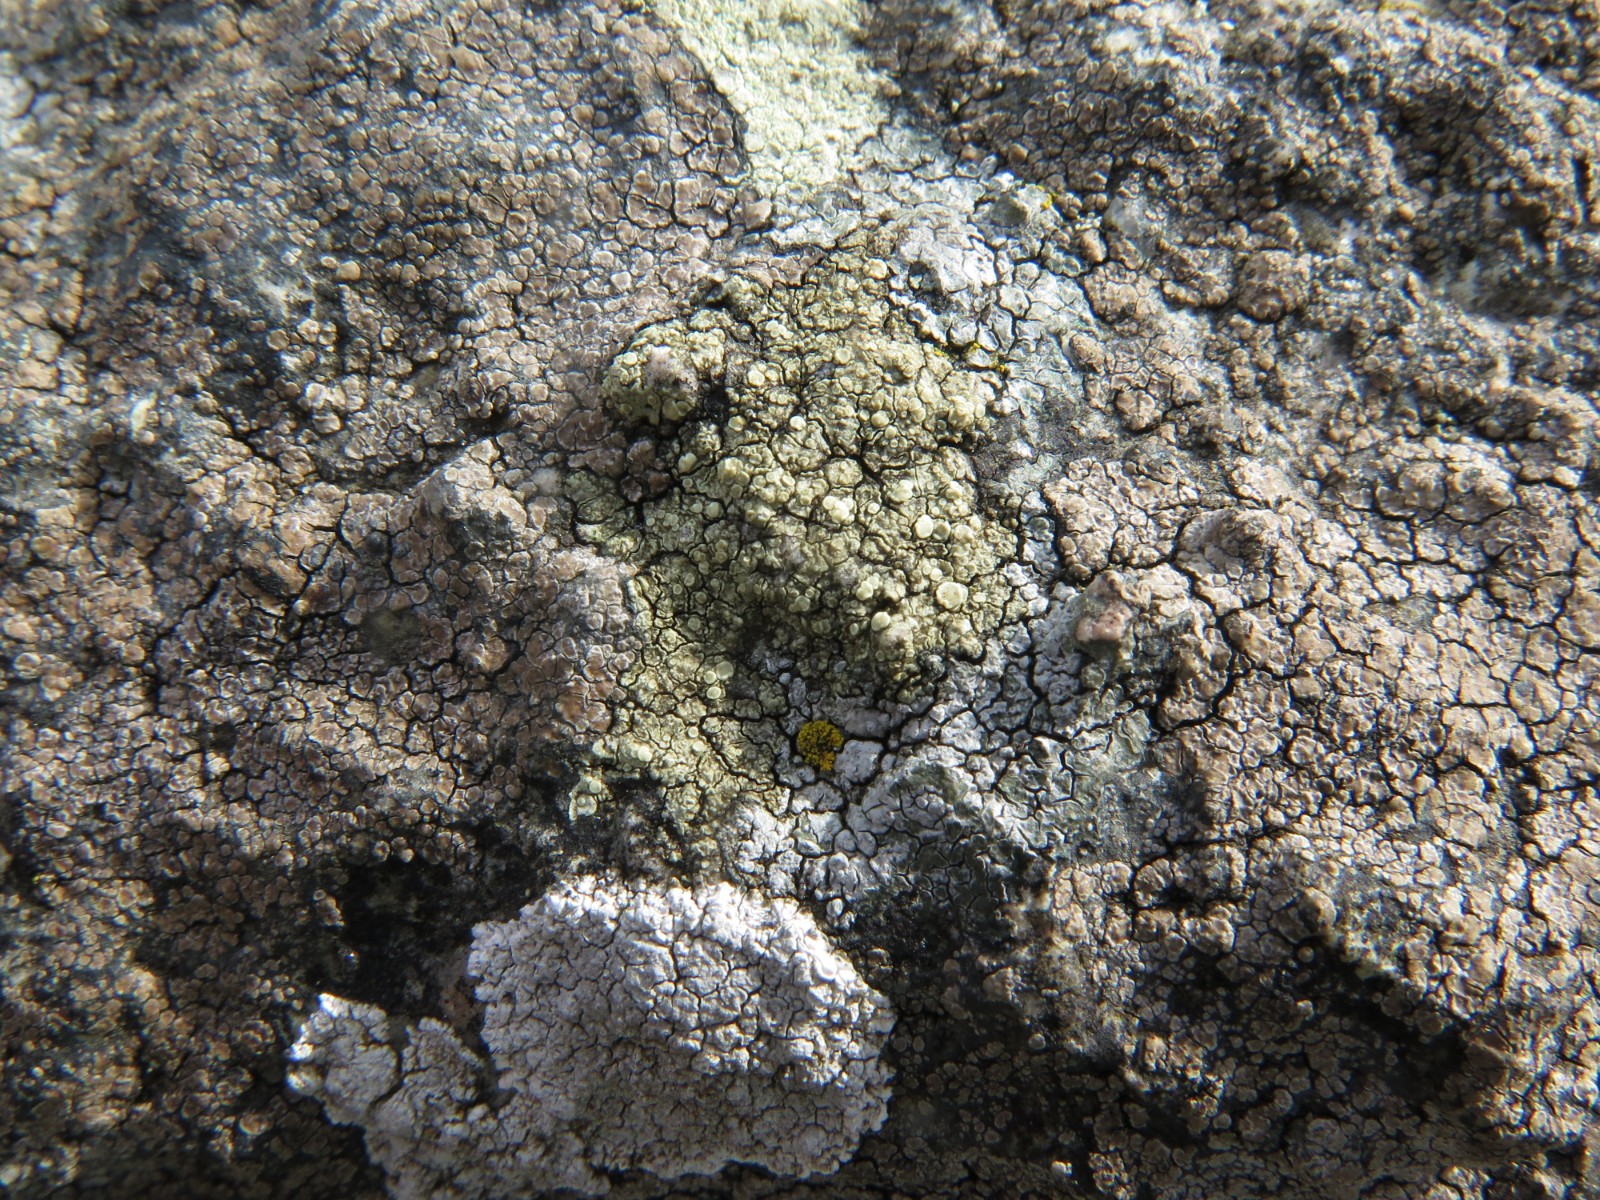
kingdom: Fungi
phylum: Ascomycota
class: Lecanoromycetes
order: Lecanorales
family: Lecanoraceae
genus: Lecanora
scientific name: Lecanora polytropa
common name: bleggrøn kantskivelav
